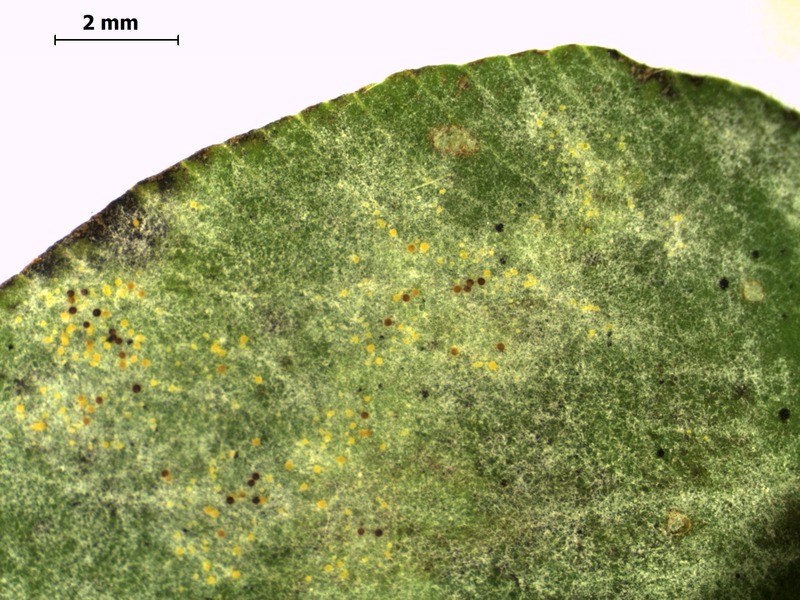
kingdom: Fungi
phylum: Ascomycota
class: Leotiomycetes
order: Helotiales
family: Erysiphaceae
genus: Erysiphe
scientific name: Erysiphe trifolii
